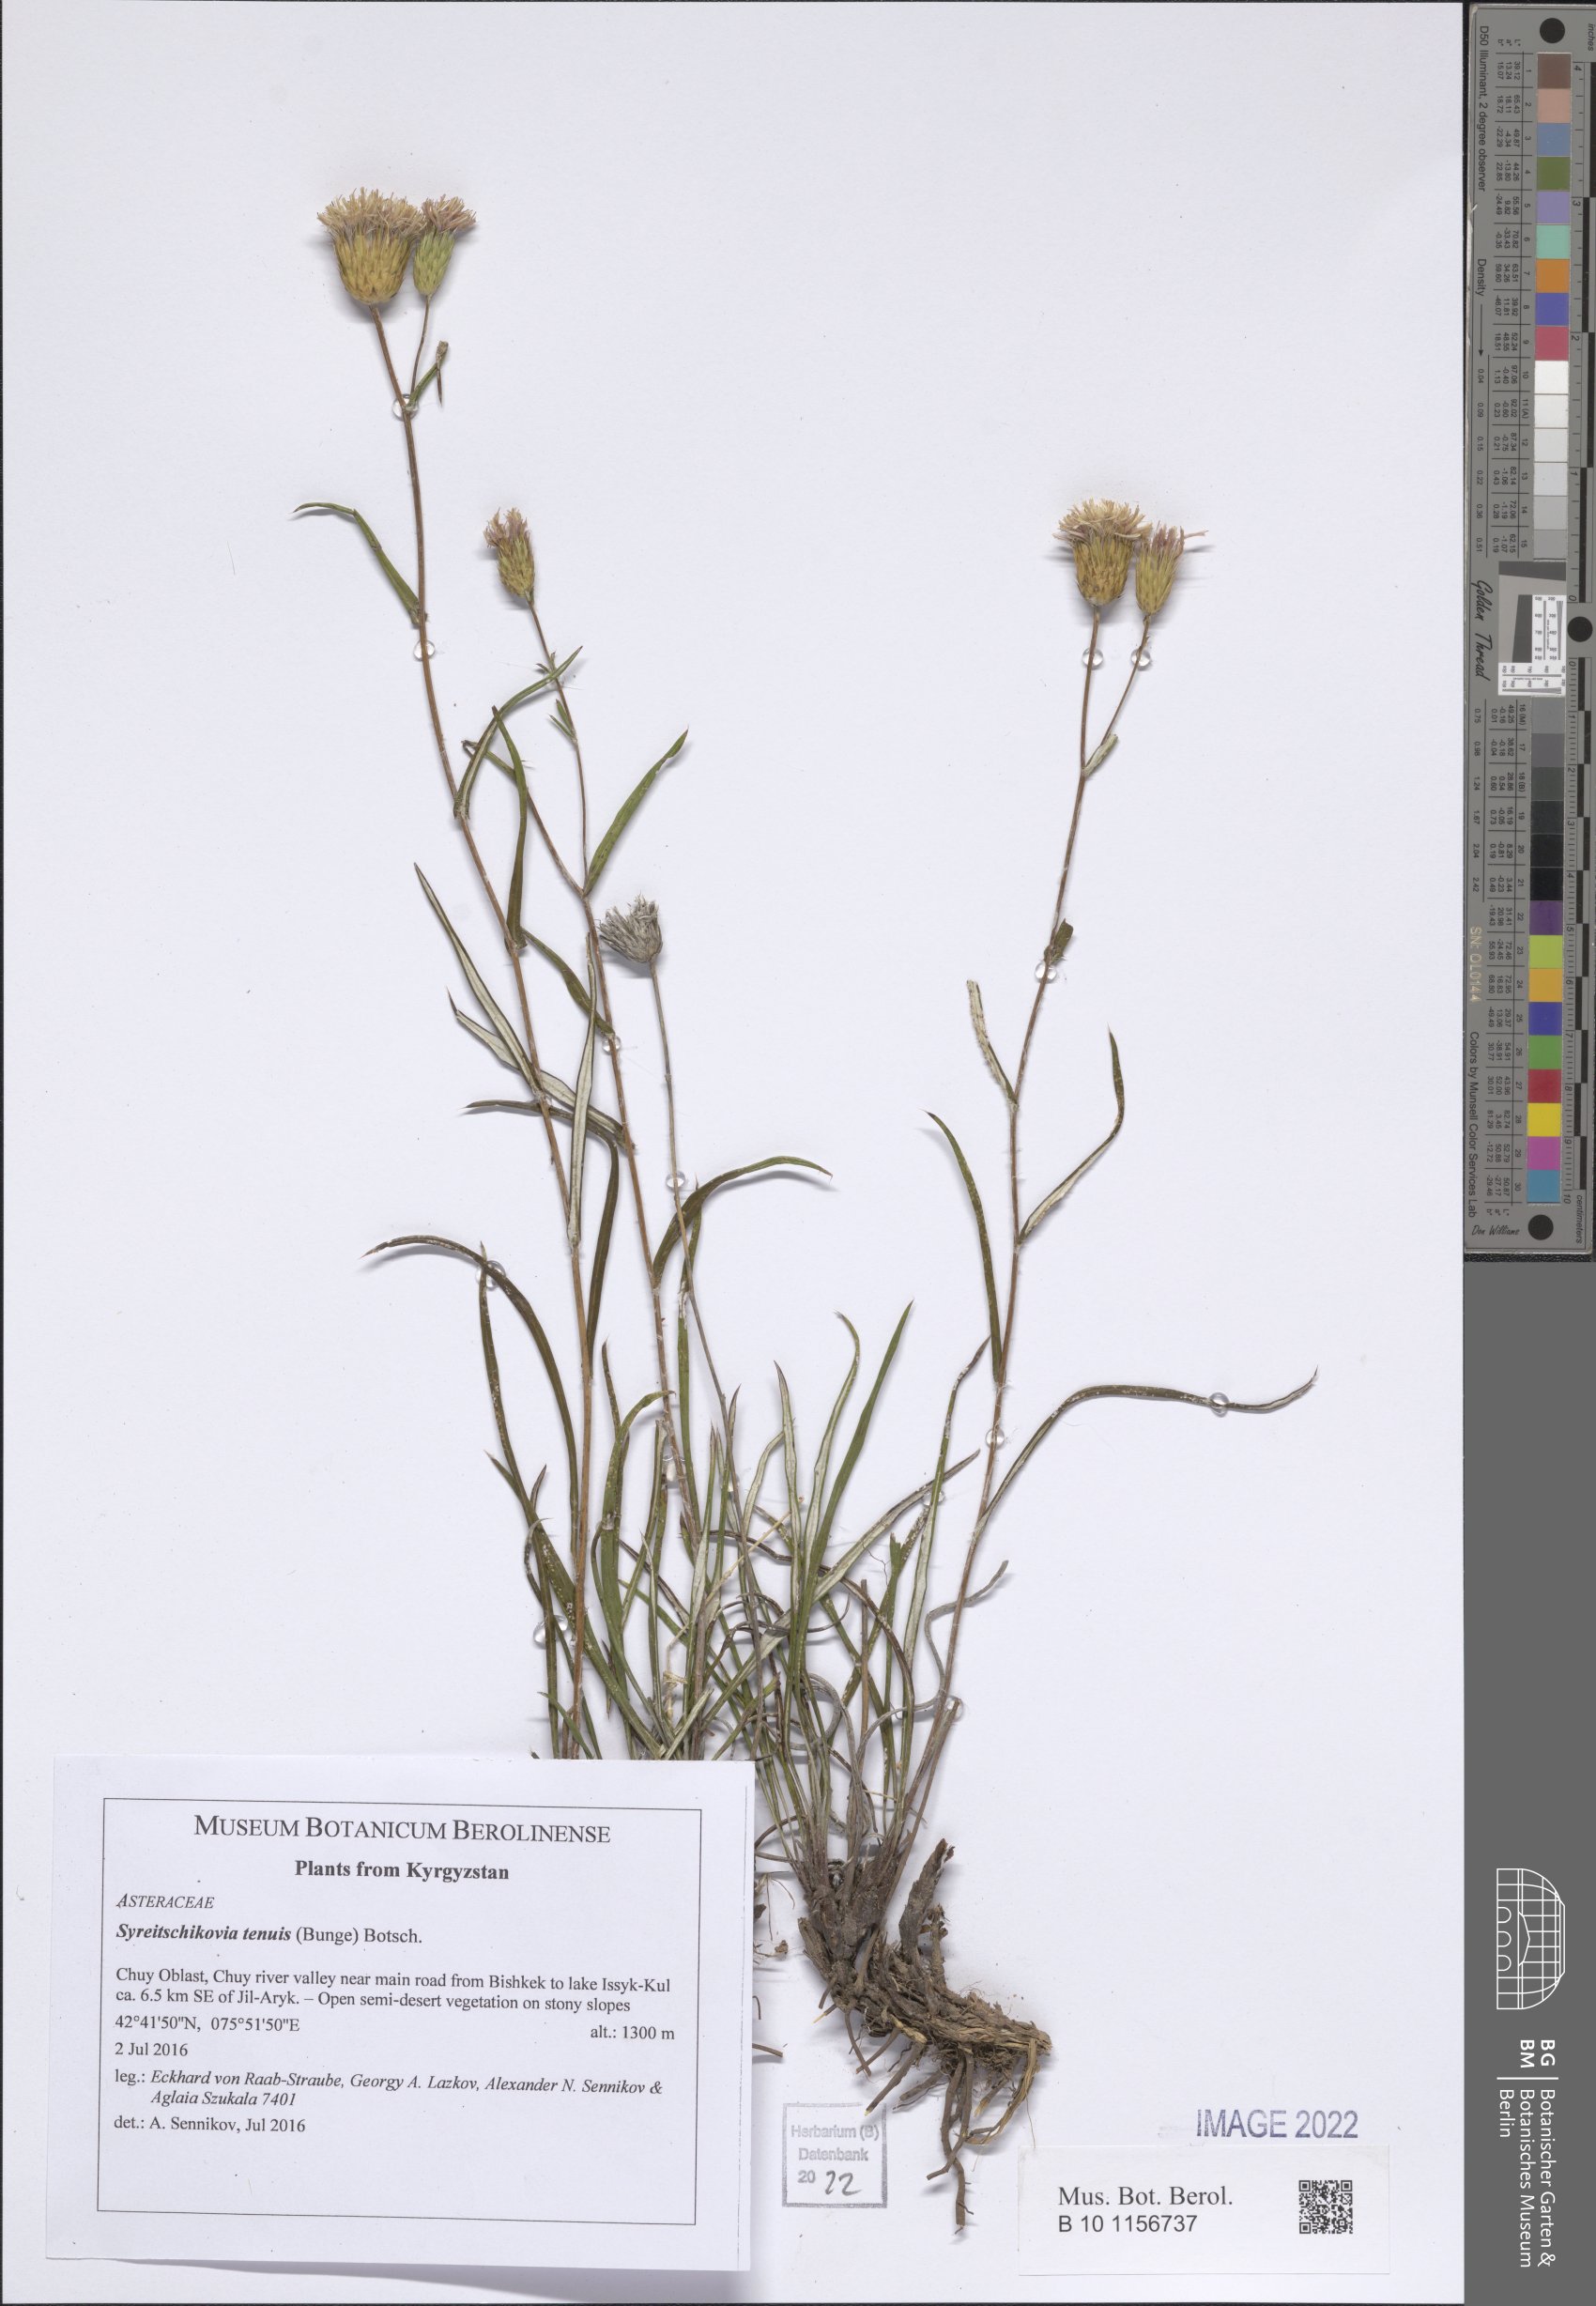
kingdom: Plantae
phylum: Tracheophyta
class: Magnoliopsida
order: Asterales
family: Asteraceae
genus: Syreitschikovia
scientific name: Syreitschikovia tenuifolia
